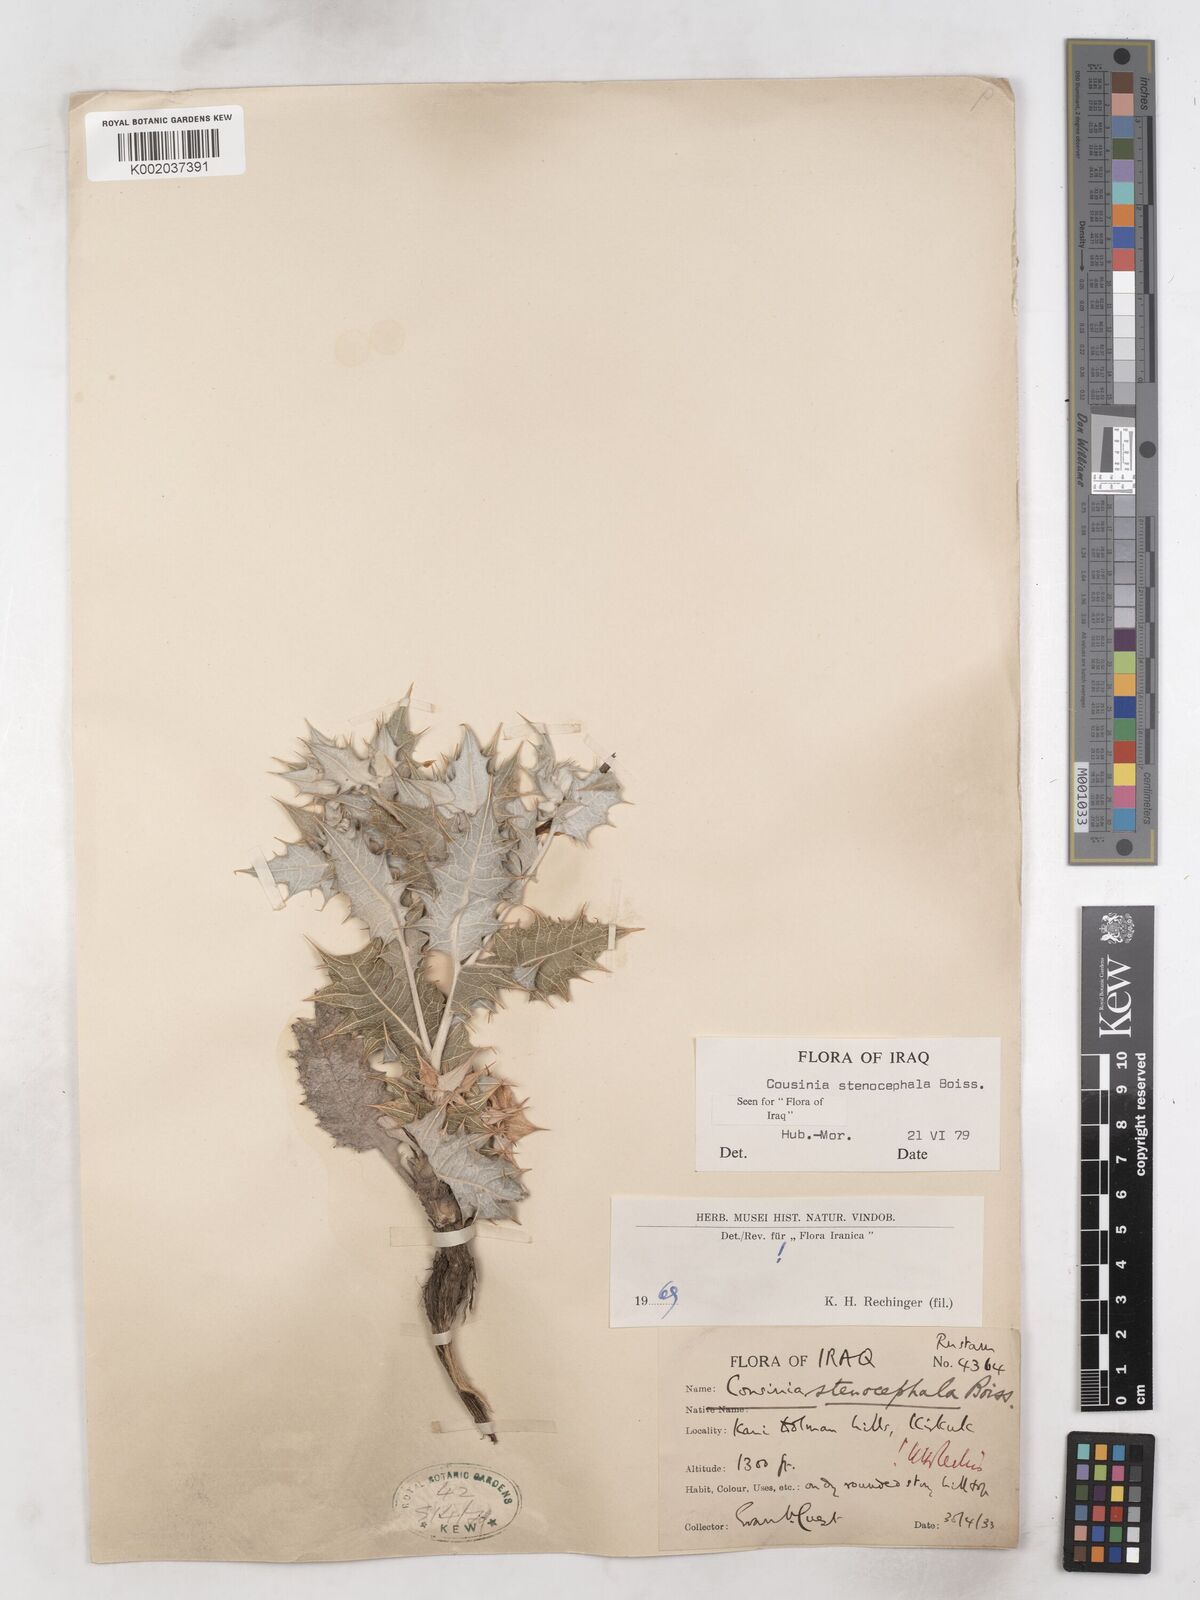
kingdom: Plantae
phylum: Tracheophyta
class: Magnoliopsida
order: Asterales
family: Asteraceae
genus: Cousinia
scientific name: Cousinia stenocephala
